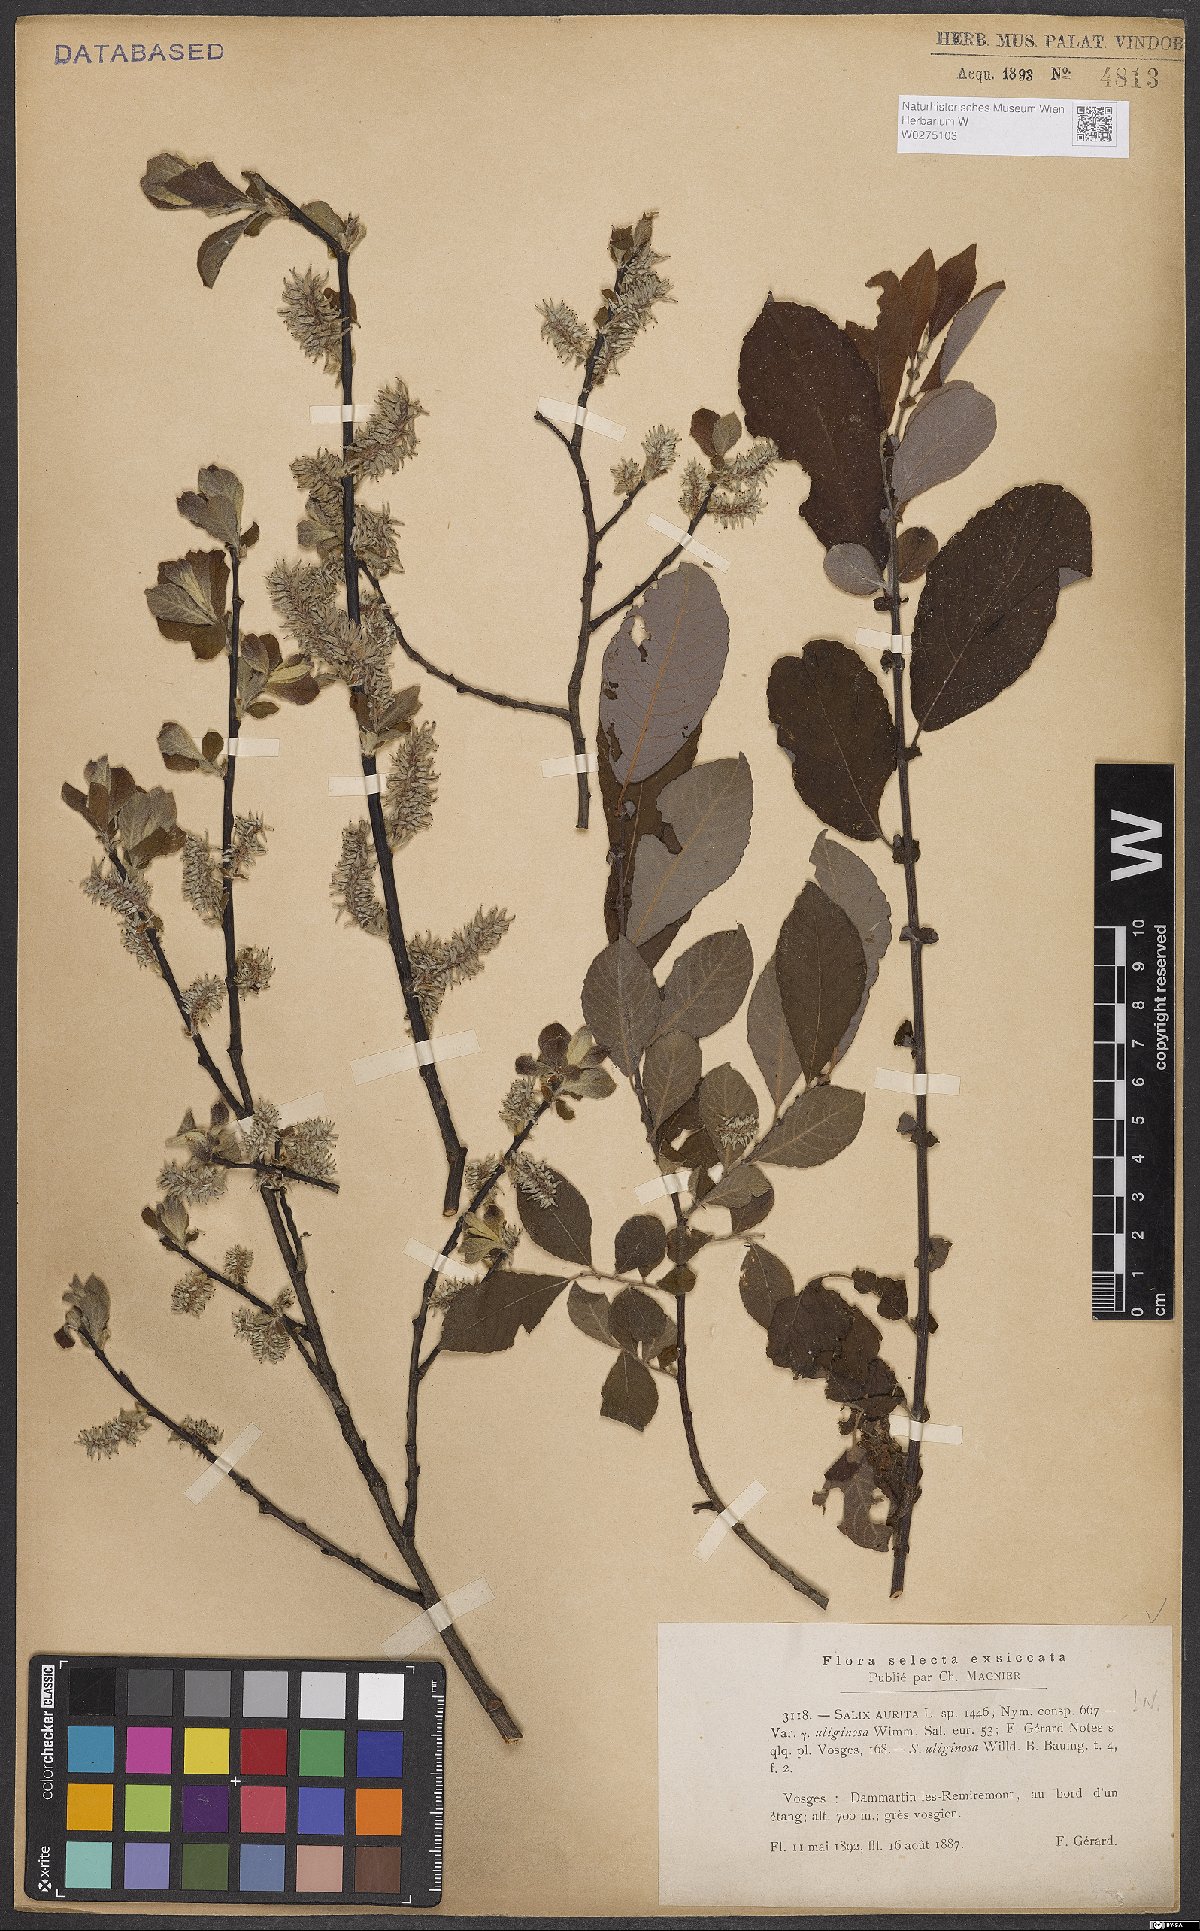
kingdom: Plantae
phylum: Tracheophyta
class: Magnoliopsida
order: Malpighiales
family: Salicaceae
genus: Salix
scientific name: Salix aurita
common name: Eared willow
